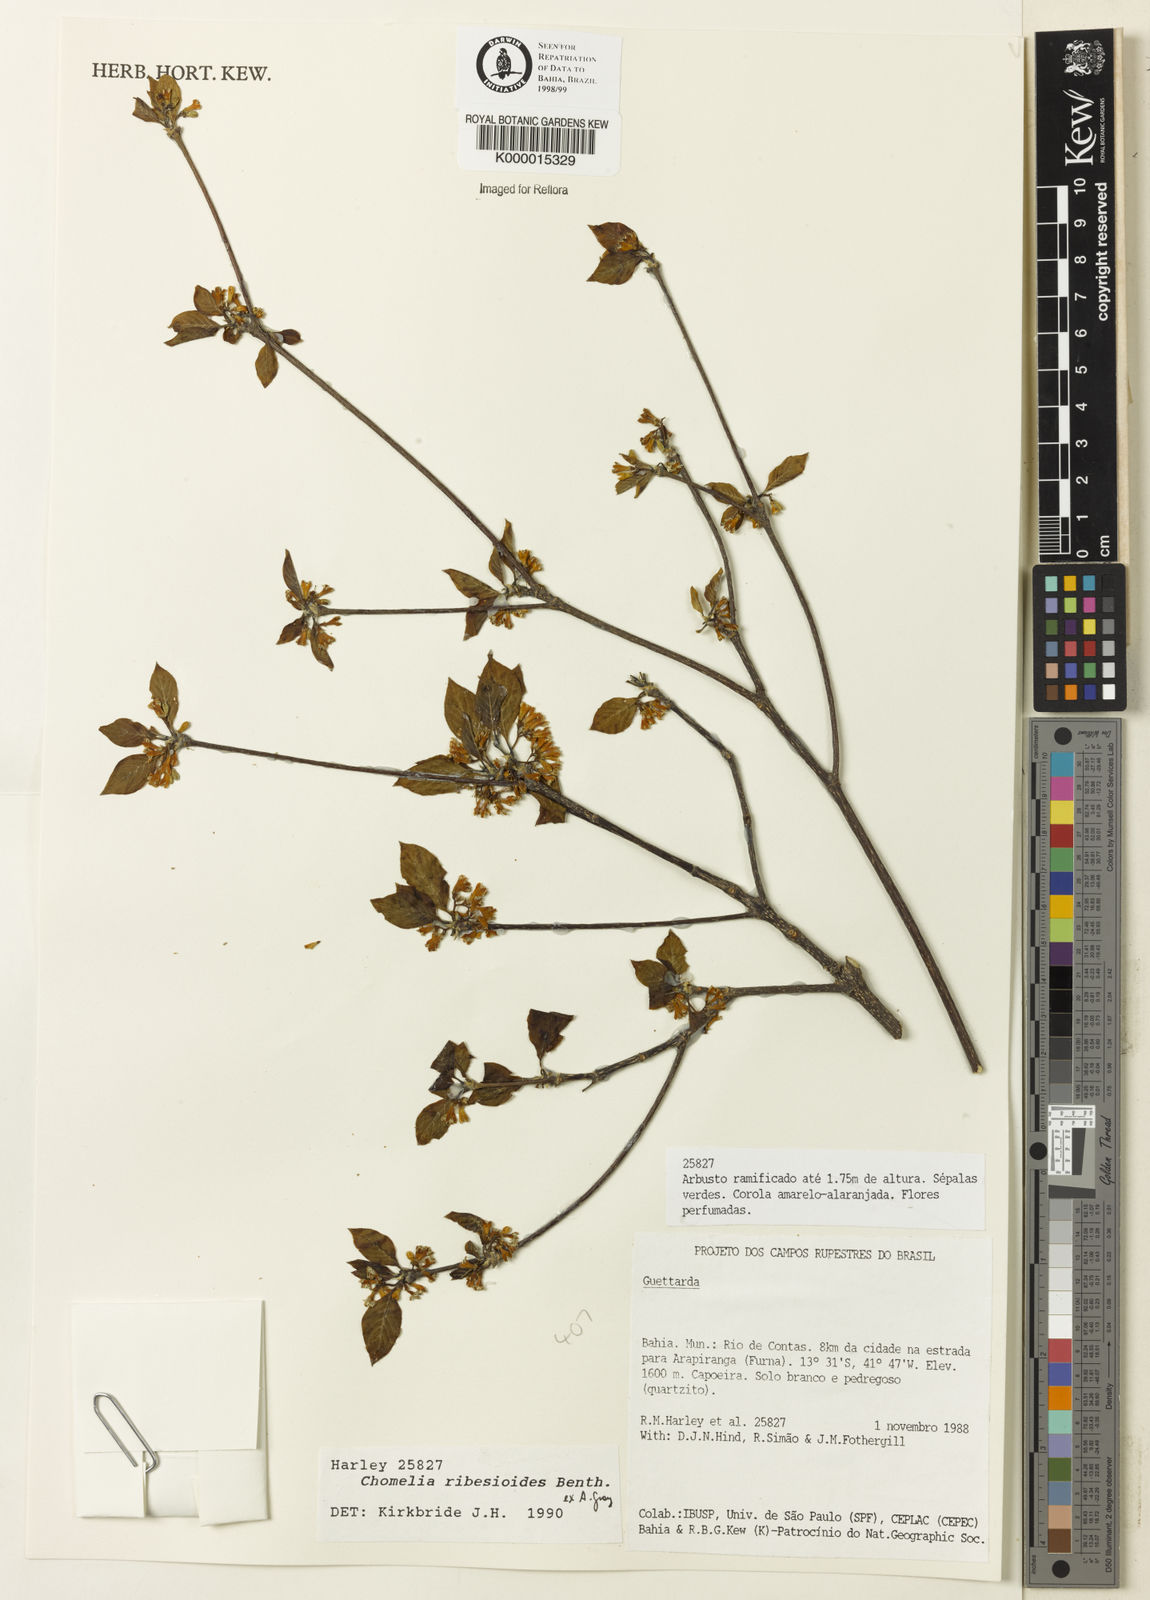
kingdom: Plantae
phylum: Tracheophyta
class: Magnoliopsida
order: Gentianales
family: Rubiaceae
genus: Chomelia
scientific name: Chomelia ribesioides
